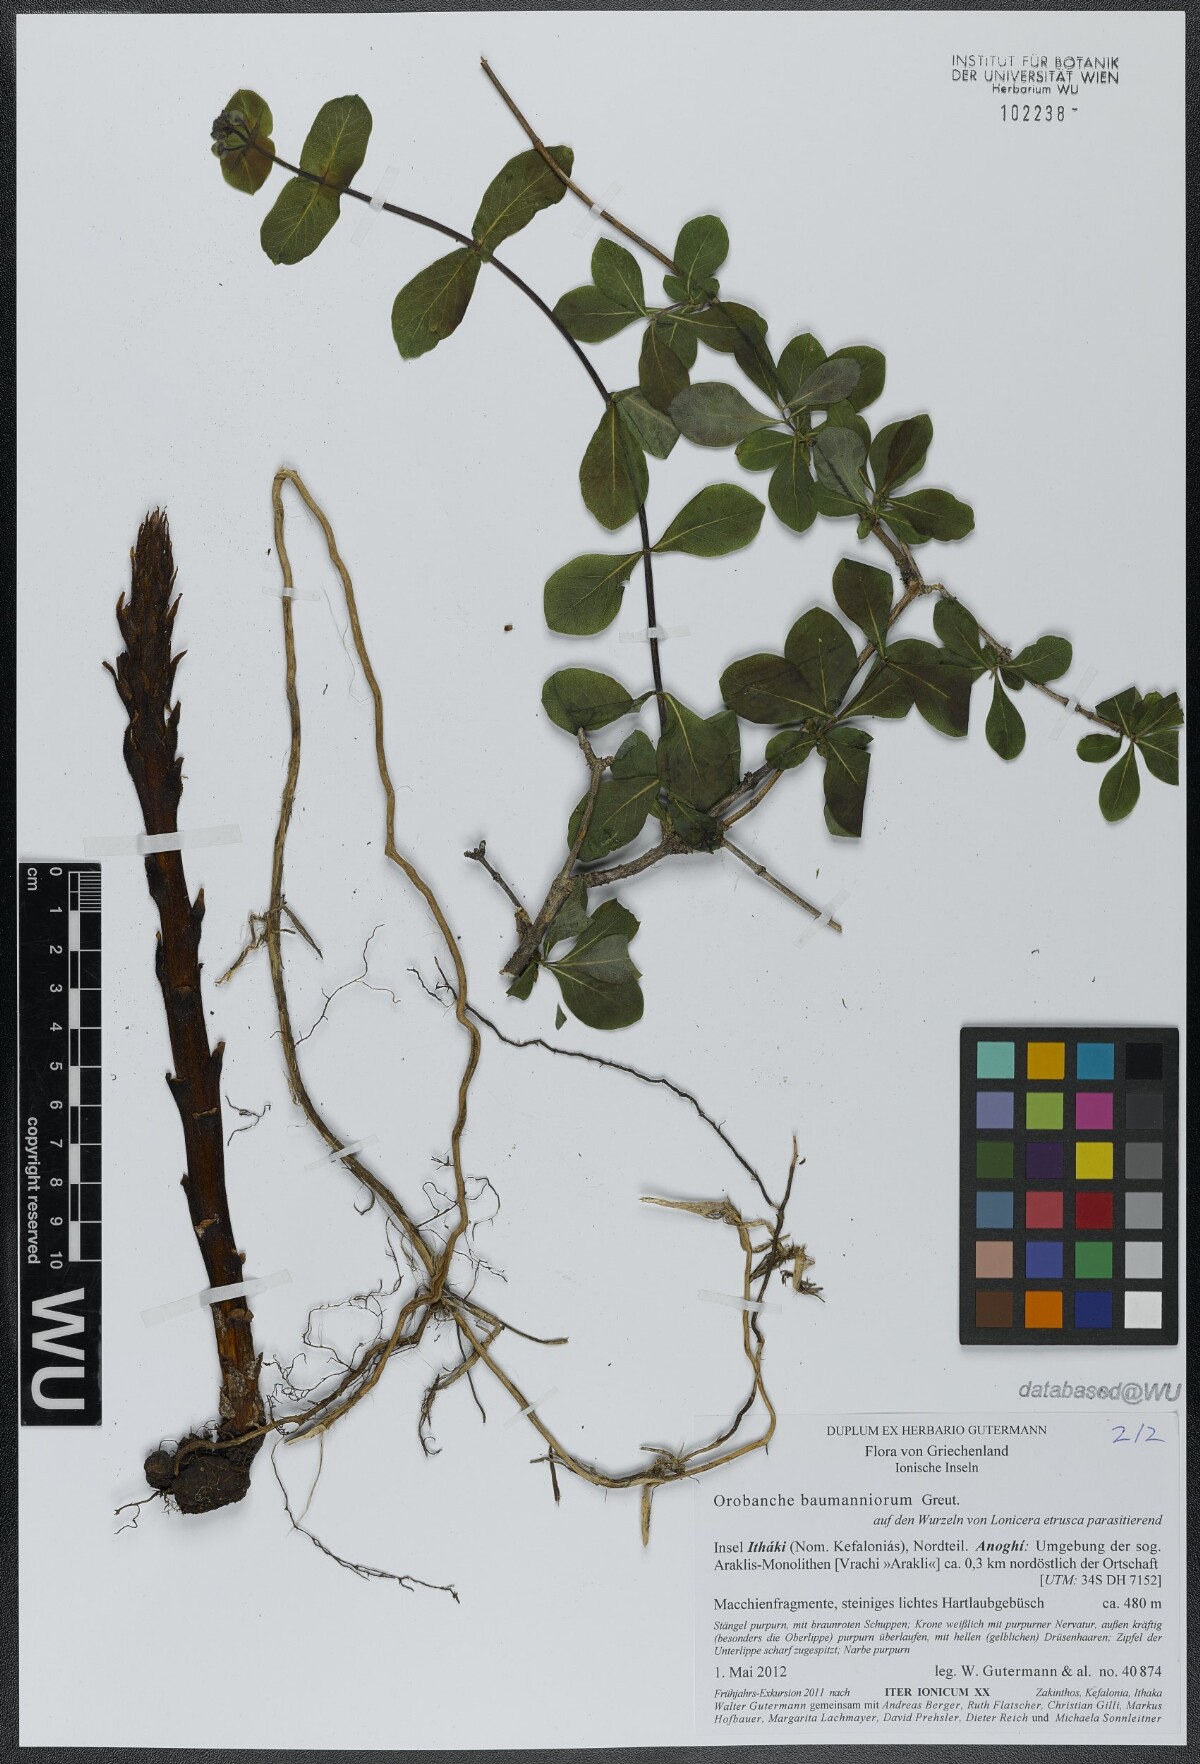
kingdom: Plantae
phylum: Tracheophyta
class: Magnoliopsida
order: Lamiales
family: Orobanchaceae
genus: Orobanche
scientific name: Orobanche baumanniorum
